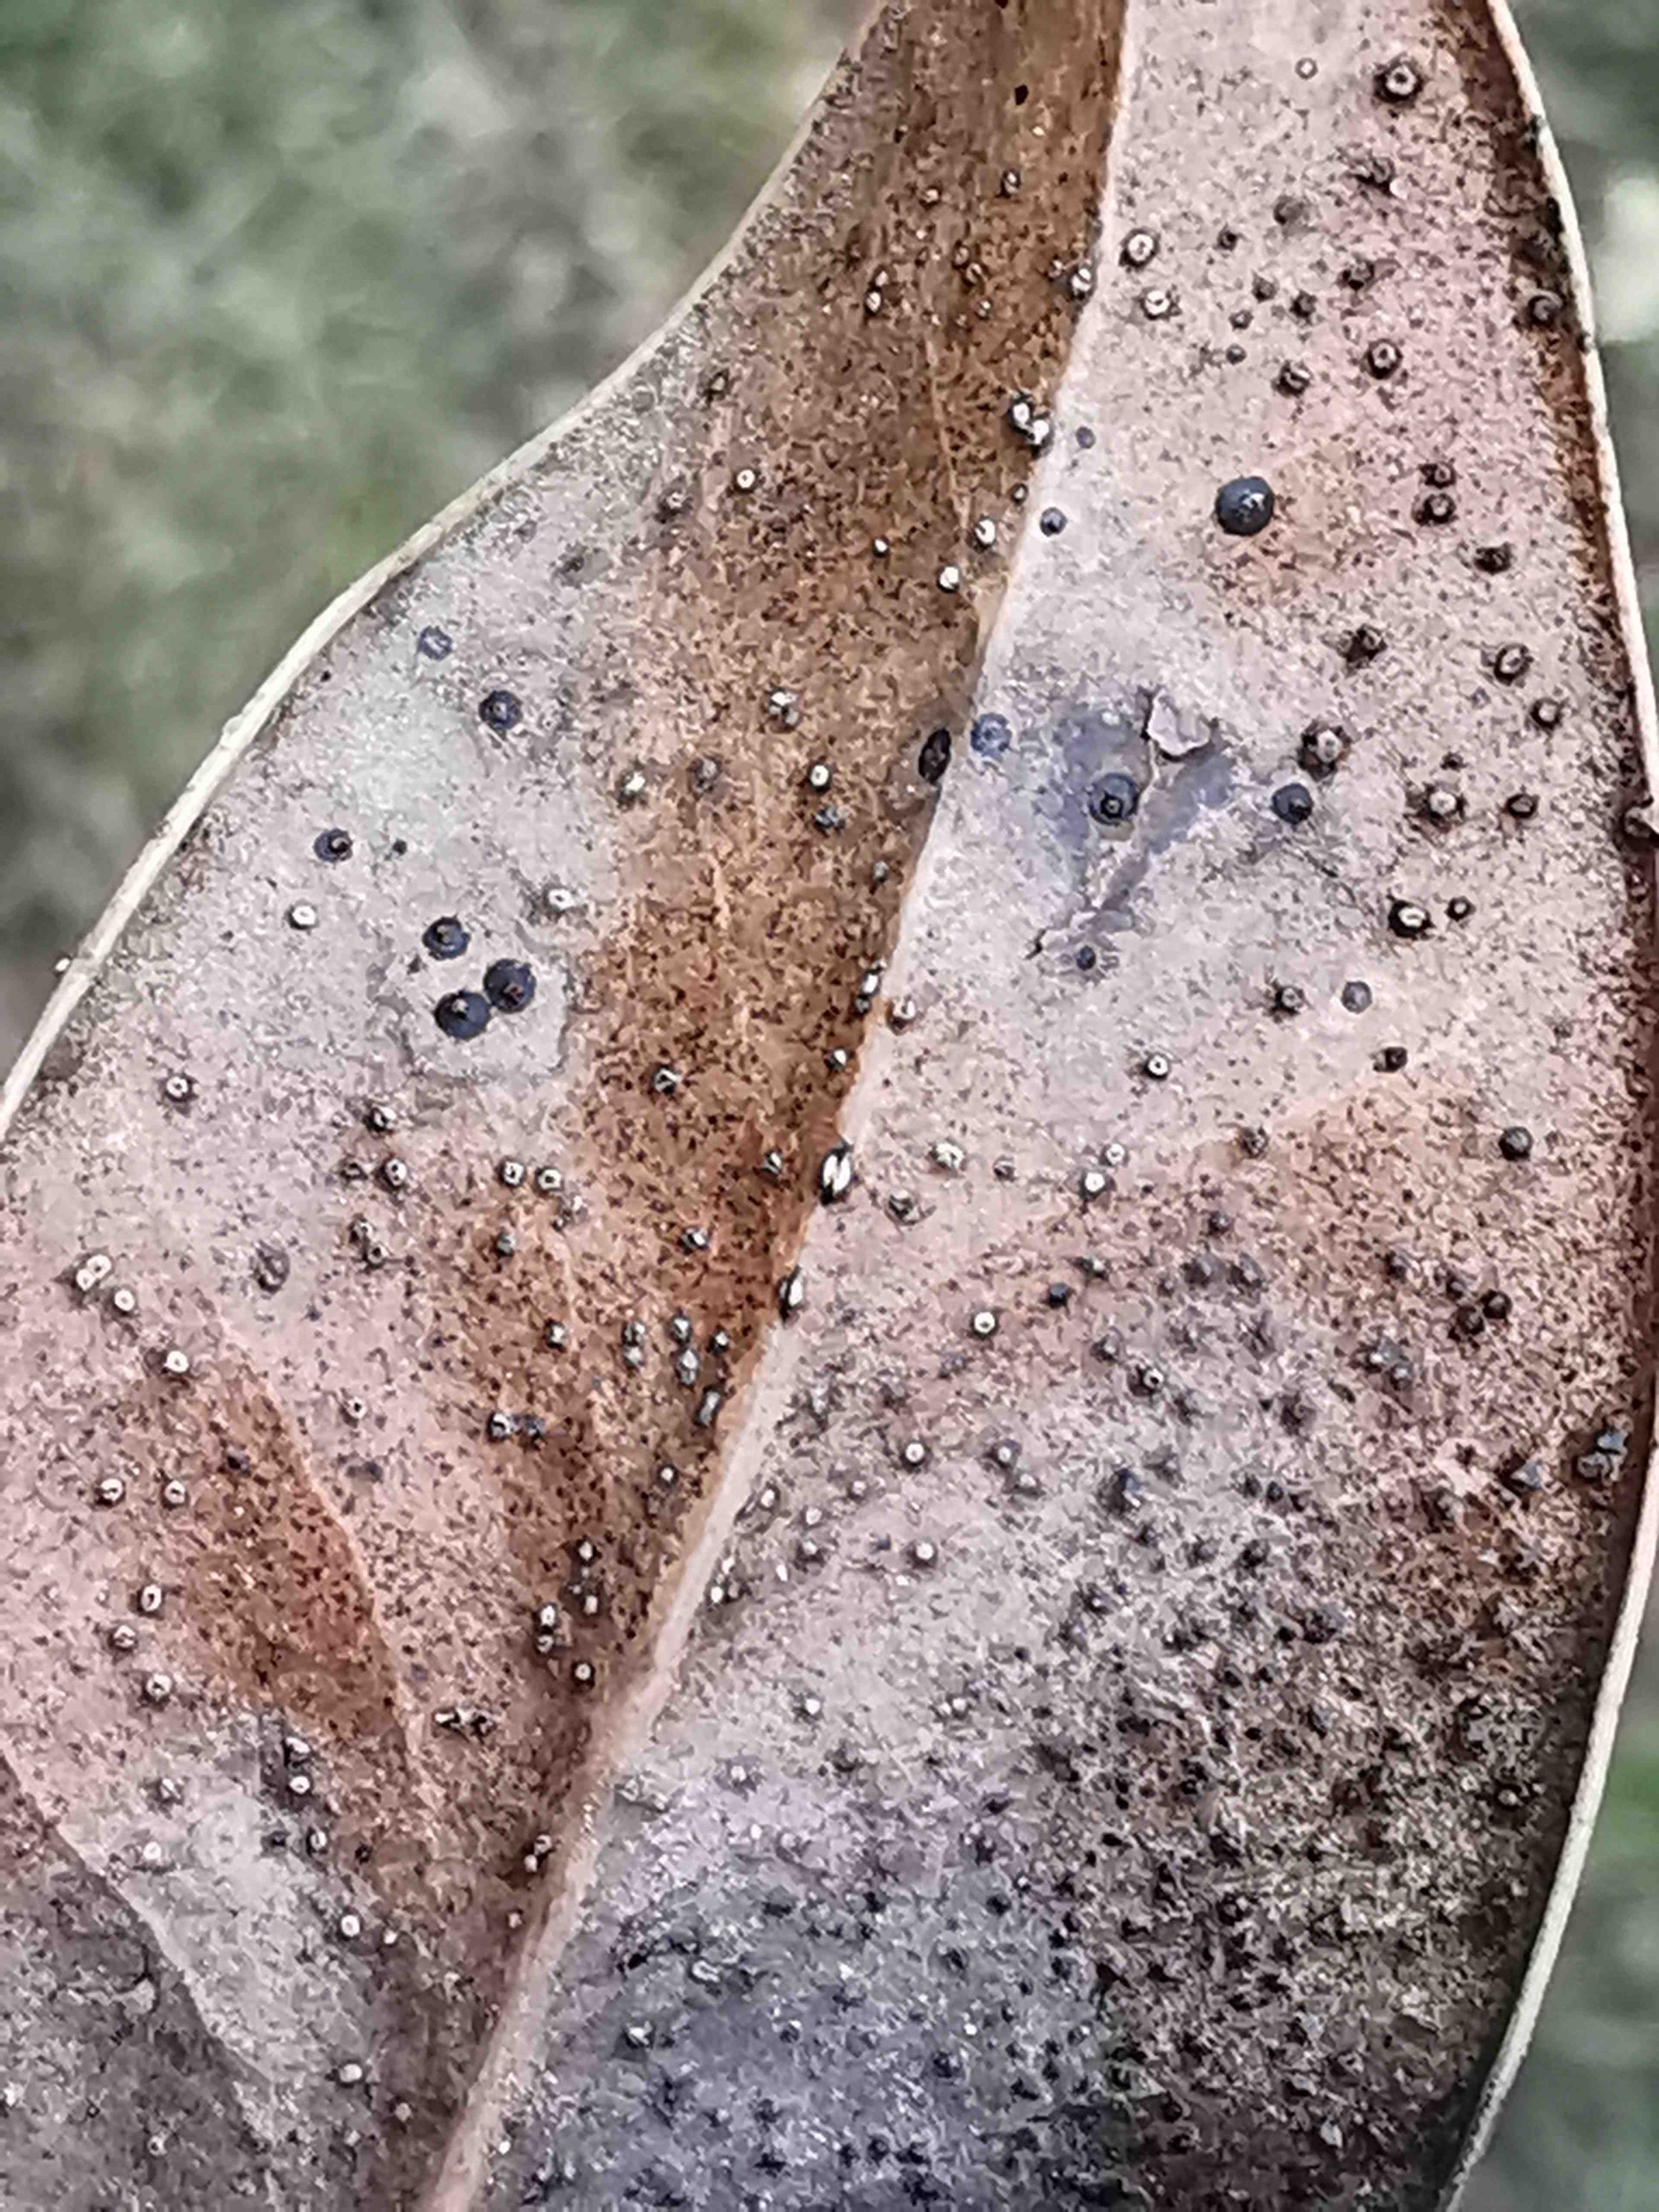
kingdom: Fungi
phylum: Ascomycota
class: Leotiomycetes
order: Phacidiales
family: Phacidiaceae
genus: Phacidium
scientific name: Phacidium lauri
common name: kristtorn-tandskive
